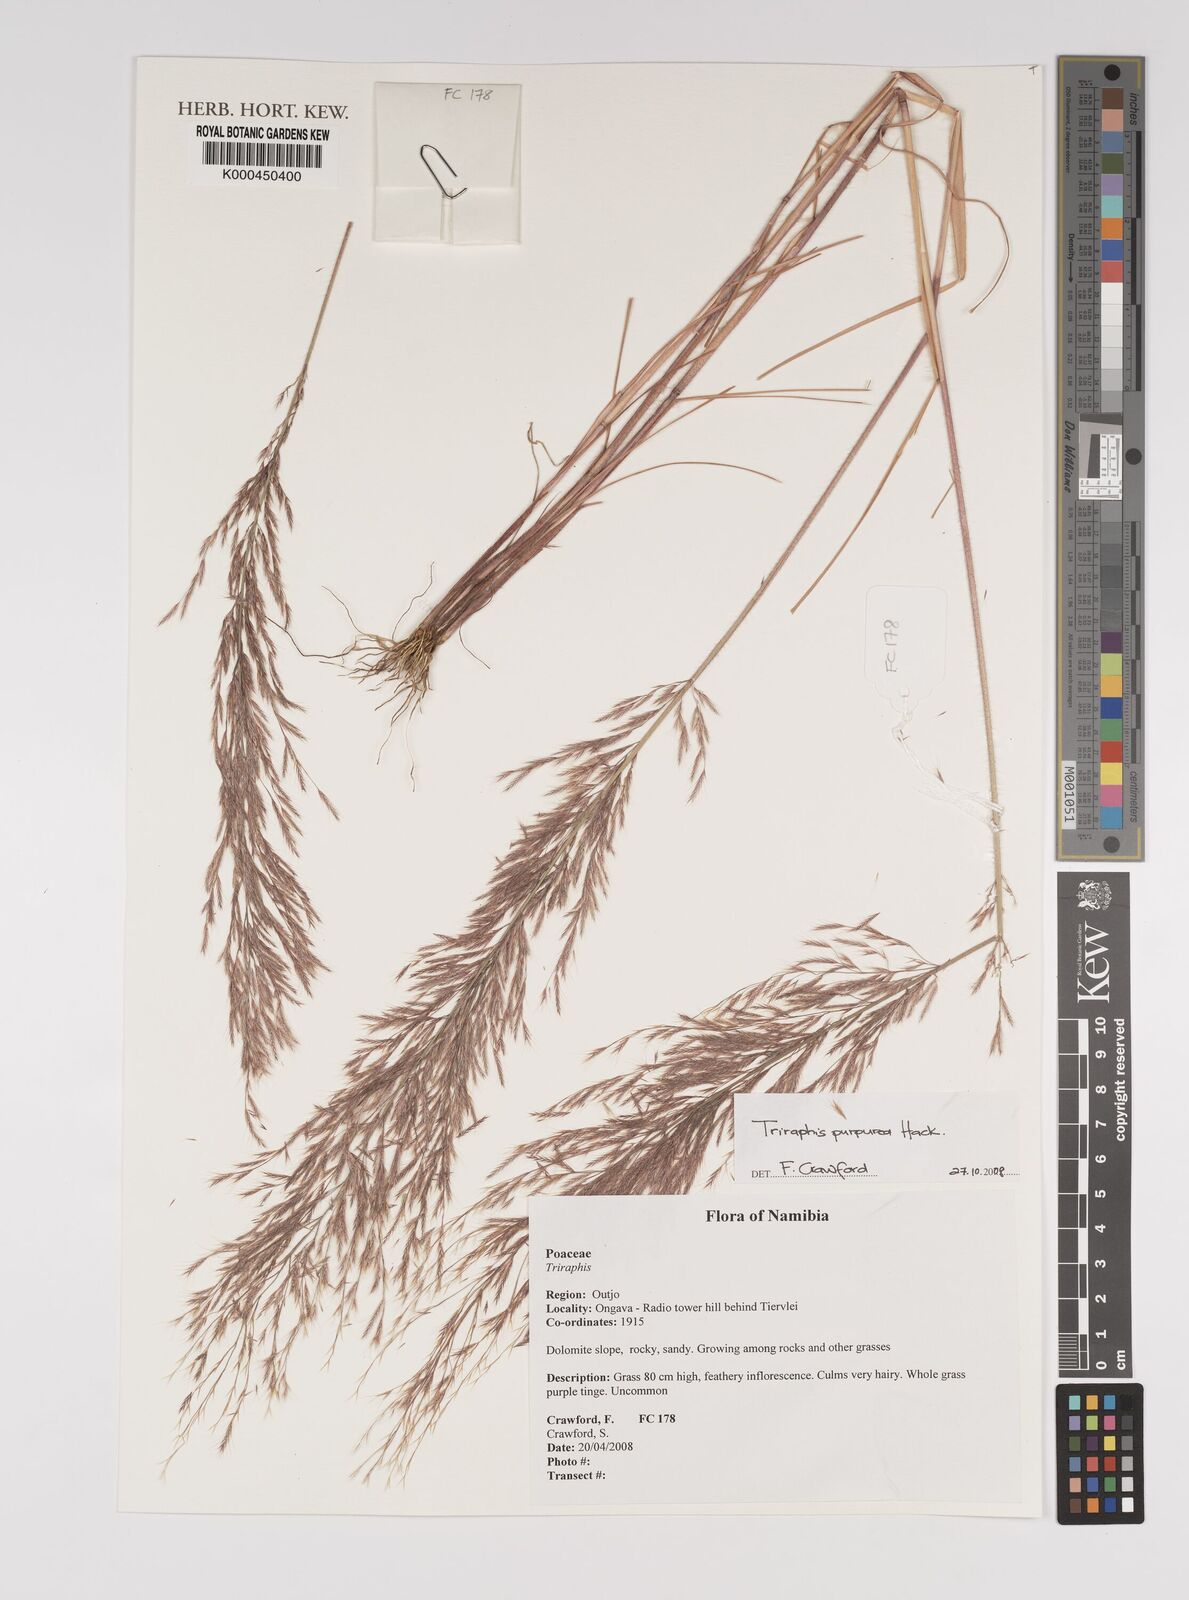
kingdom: Plantae
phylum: Tracheophyta
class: Liliopsida
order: Poales
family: Poaceae
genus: Triraphis
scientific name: Triraphis purpurea
